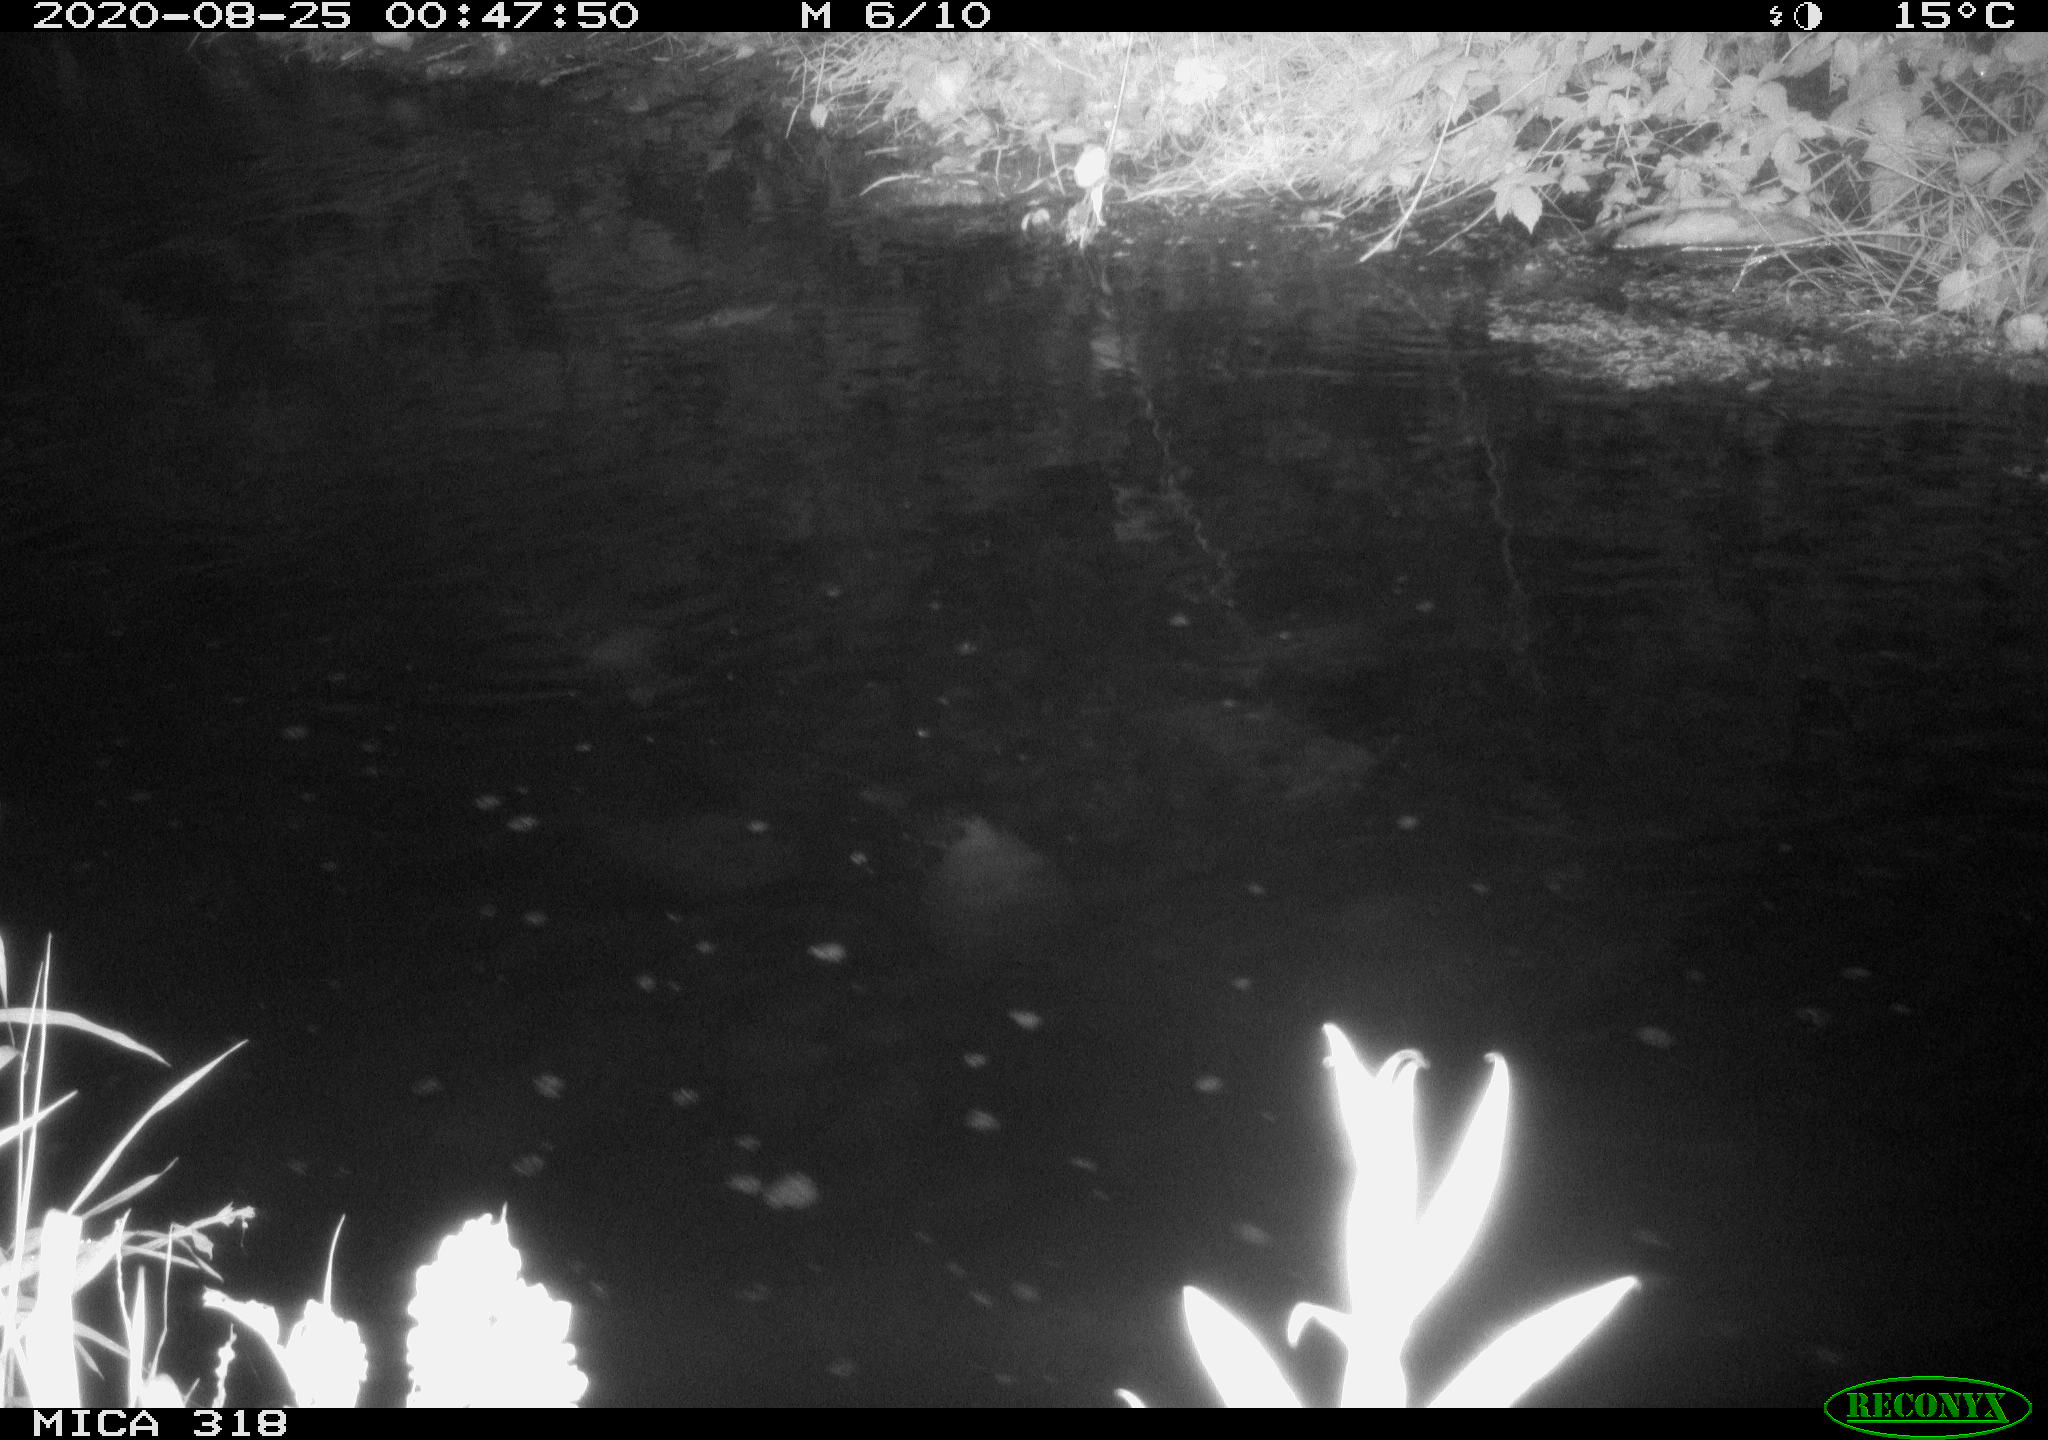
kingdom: Animalia
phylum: Chordata
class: Mammalia
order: Rodentia
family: Muridae
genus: Rattus
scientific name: Rattus norvegicus
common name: Brown rat
